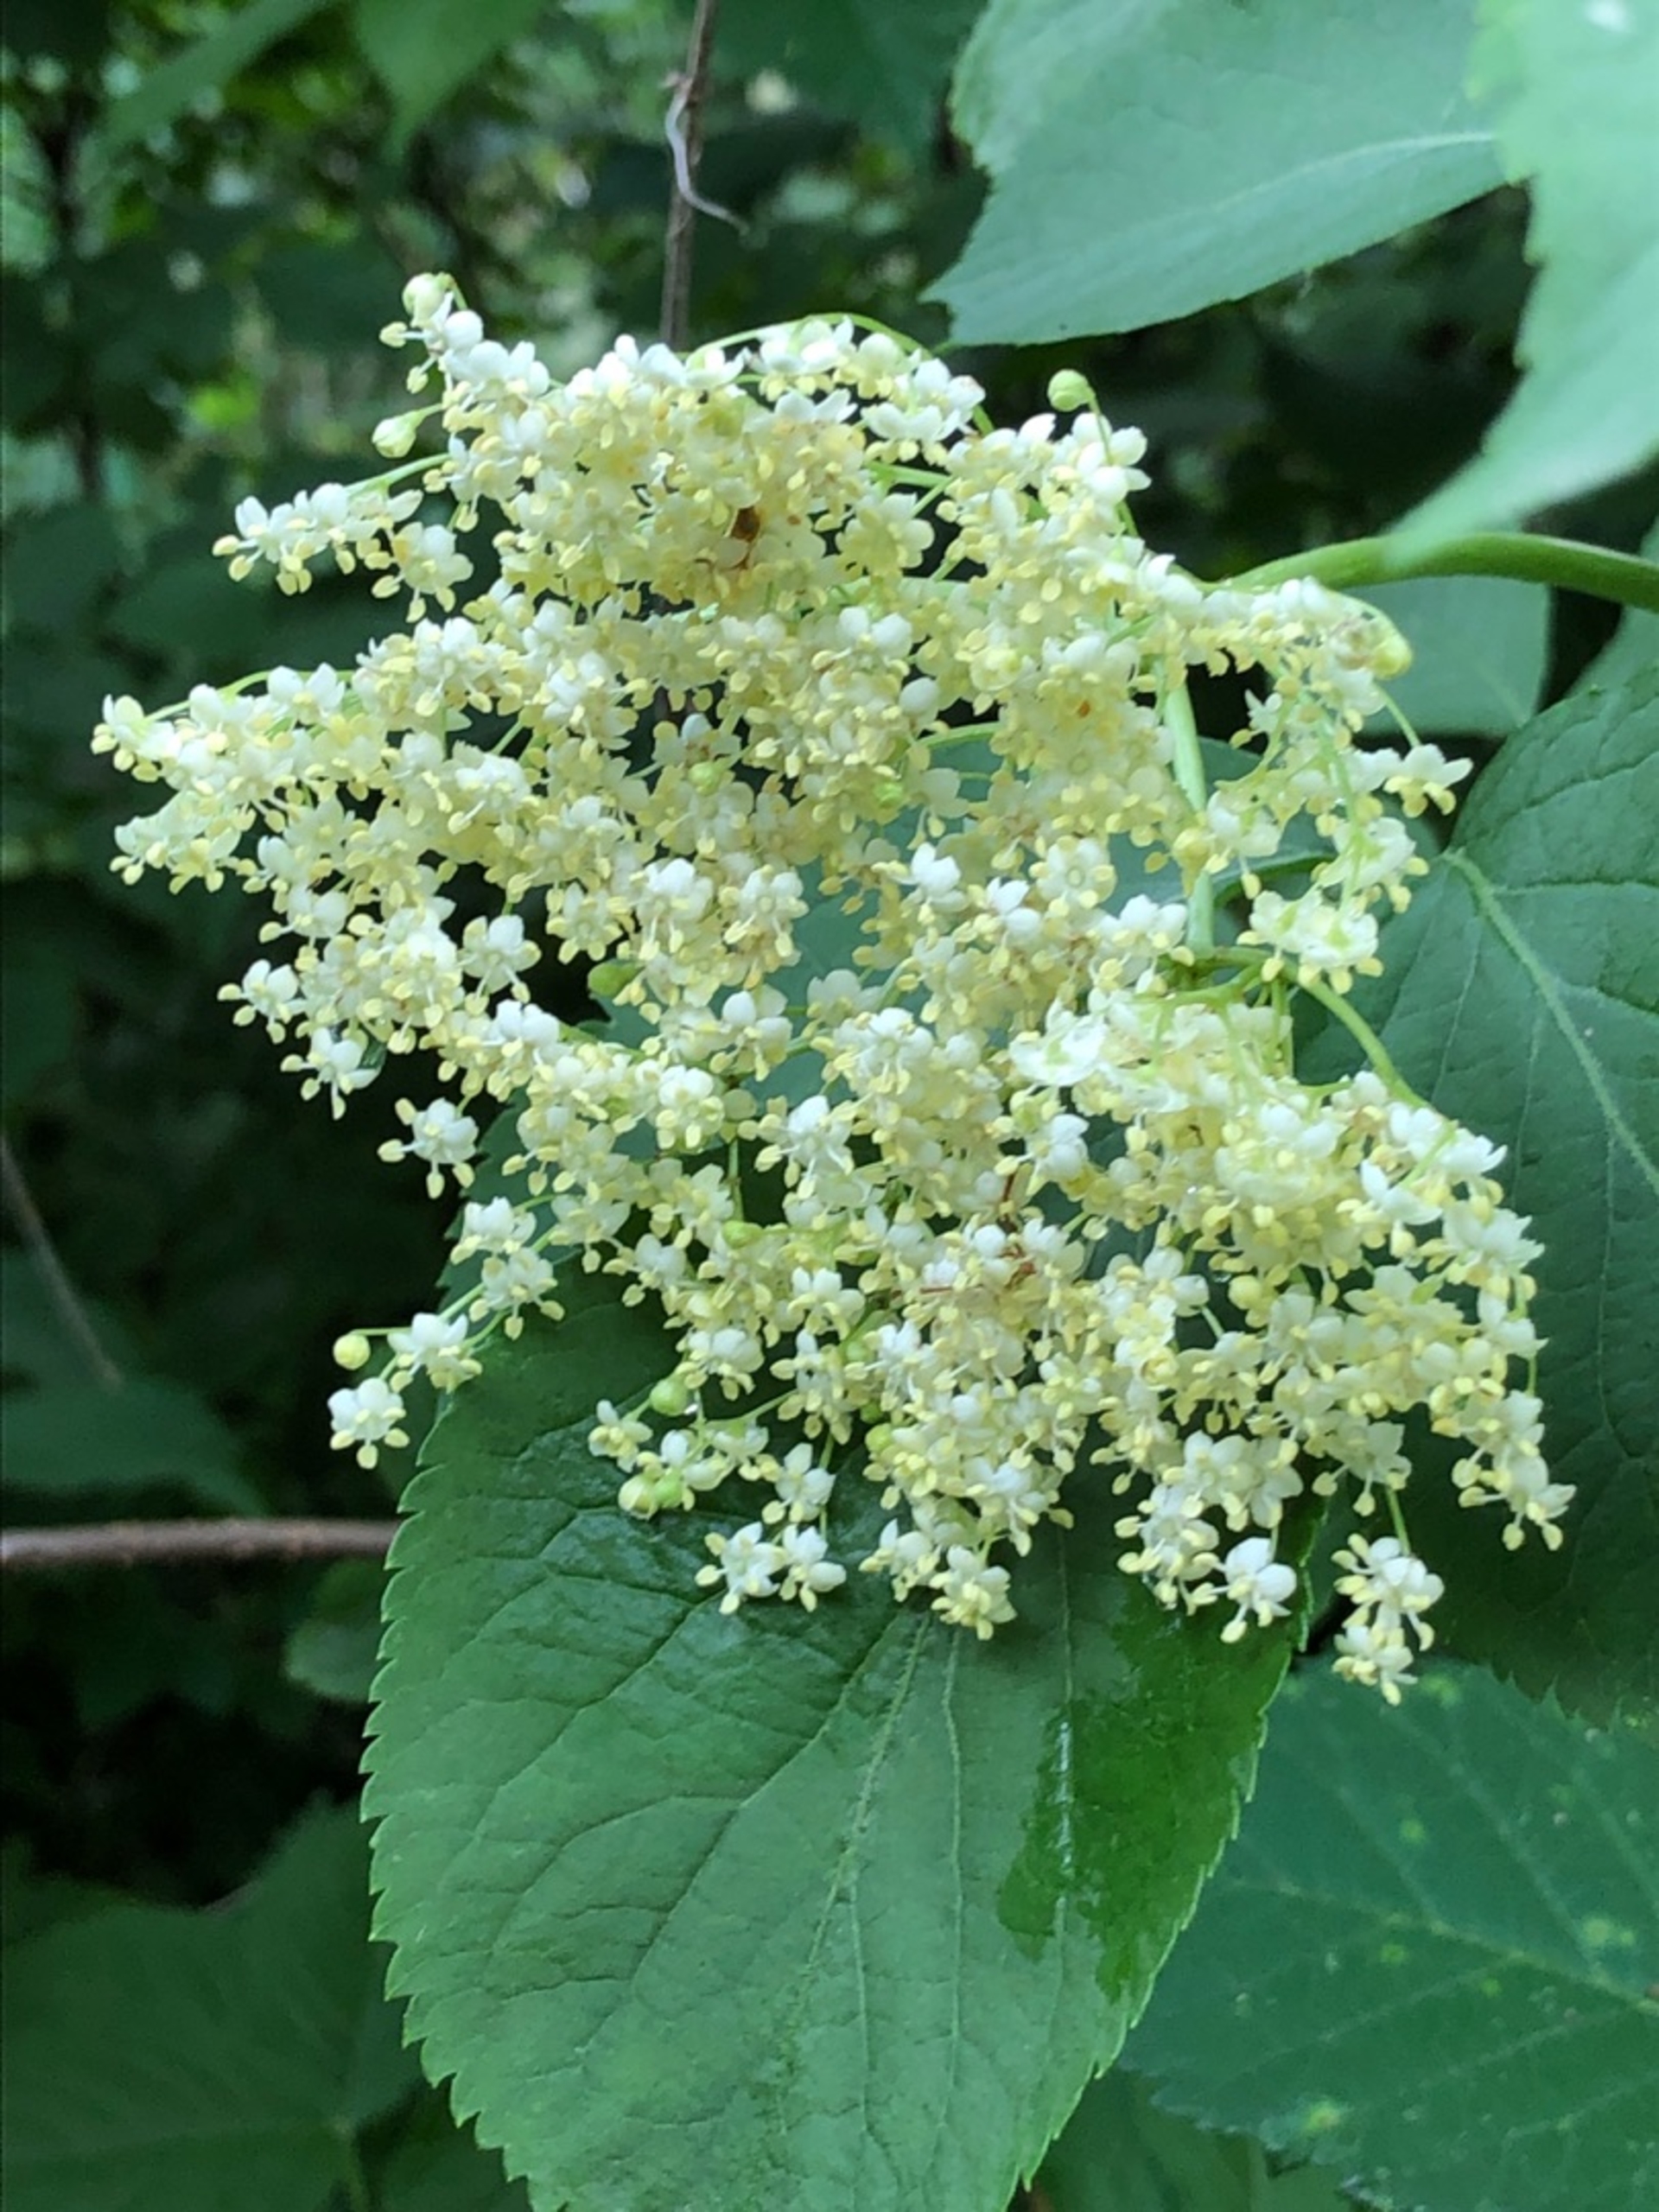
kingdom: Plantae
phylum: Tracheophyta
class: Magnoliopsida
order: Dipsacales
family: Viburnaceae
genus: Sambucus
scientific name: Sambucus nigra
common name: Almindelig hyld
